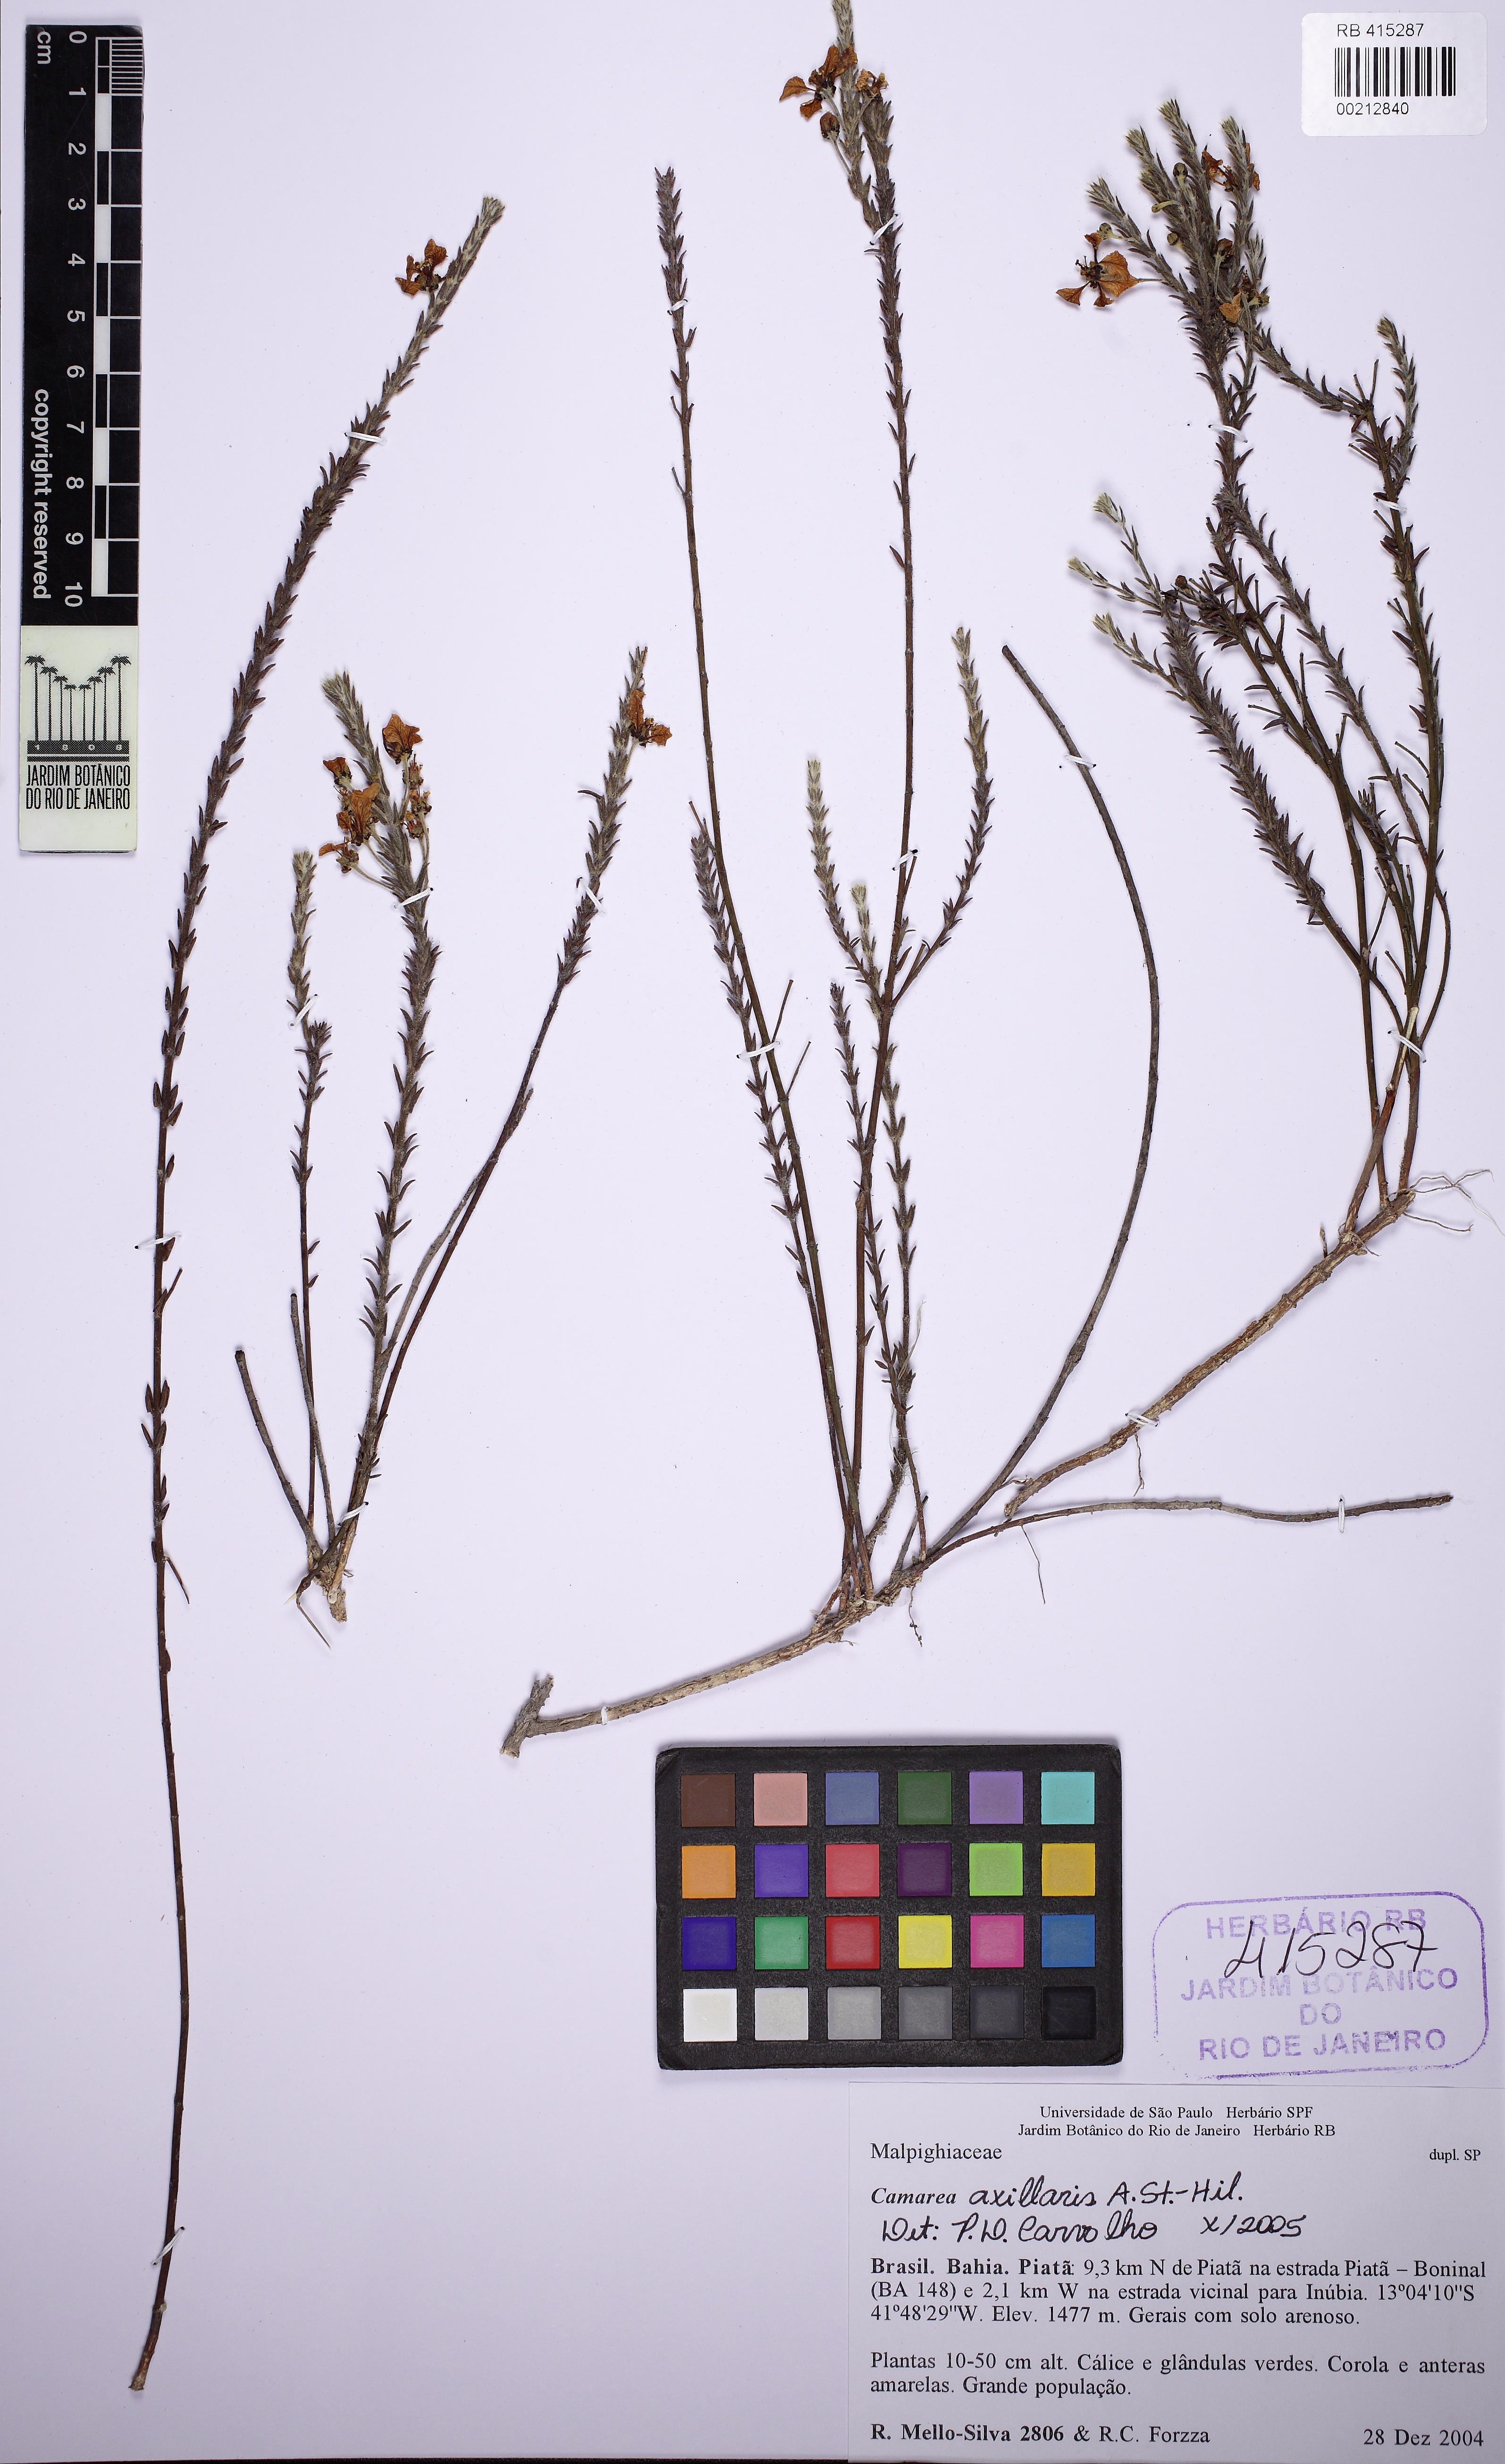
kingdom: Plantae
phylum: Tracheophyta
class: Magnoliopsida
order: Malpighiales
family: Malpighiaceae
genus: Camarea
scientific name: Camarea axillaris
